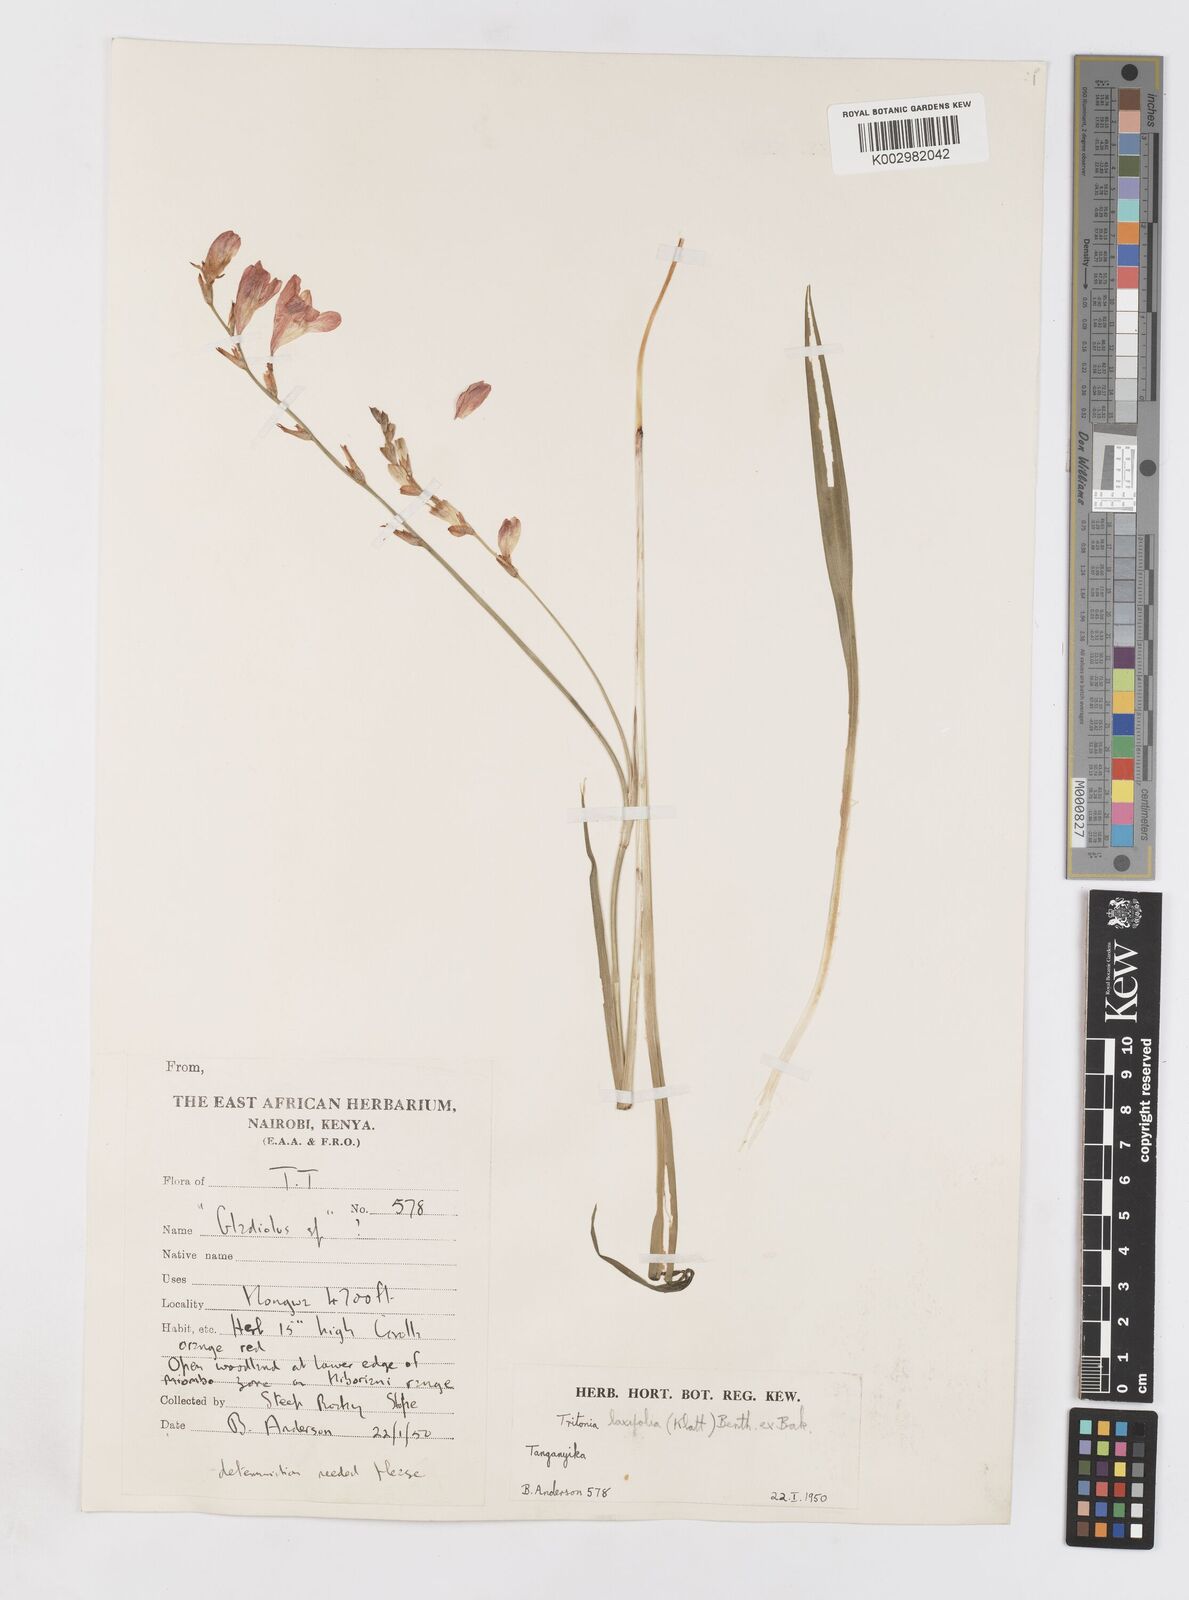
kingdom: Plantae
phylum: Tracheophyta
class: Liliopsida
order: Asparagales
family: Iridaceae
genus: Tritonia
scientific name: Tritonia laxifolia
